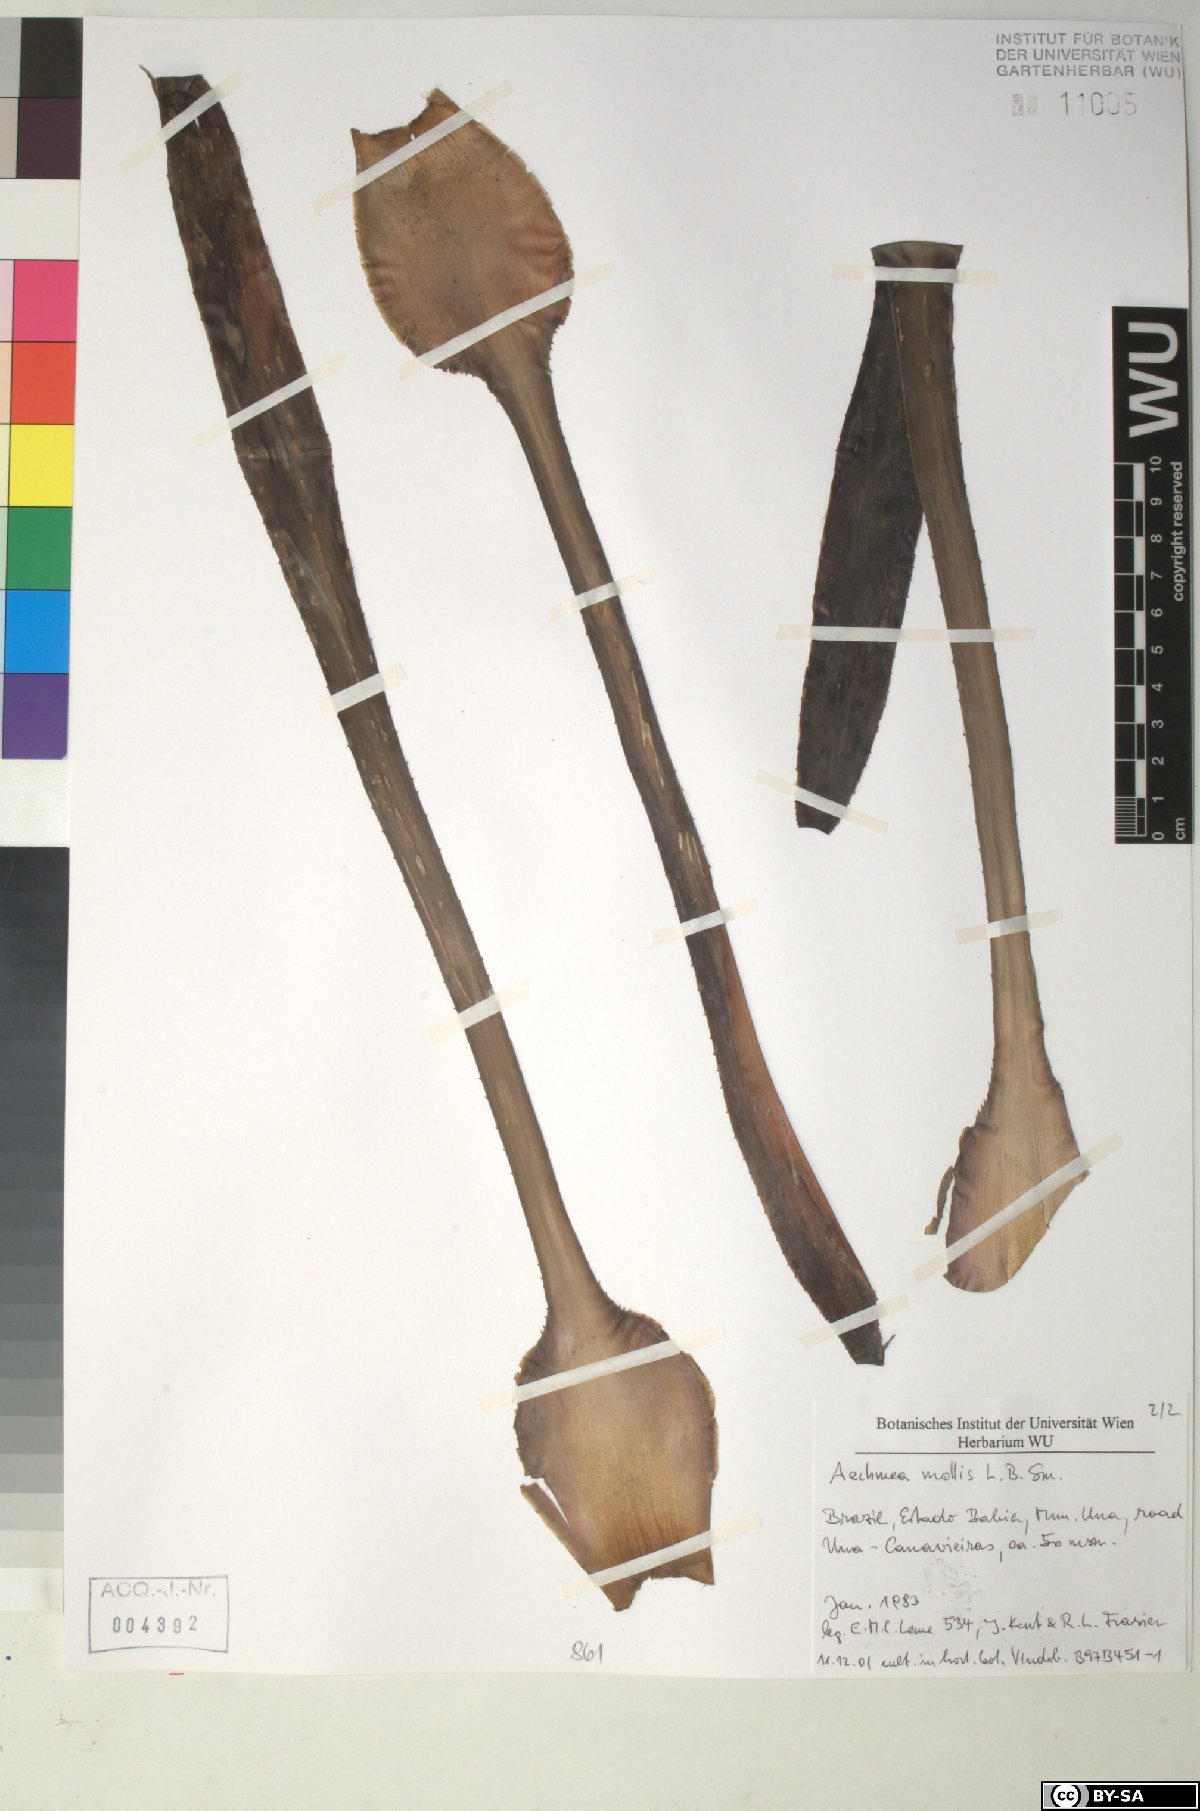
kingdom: Plantae
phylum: Tracheophyta
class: Liliopsida
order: Poales
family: Bromeliaceae
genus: Aechmea
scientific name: Aechmea mollis
